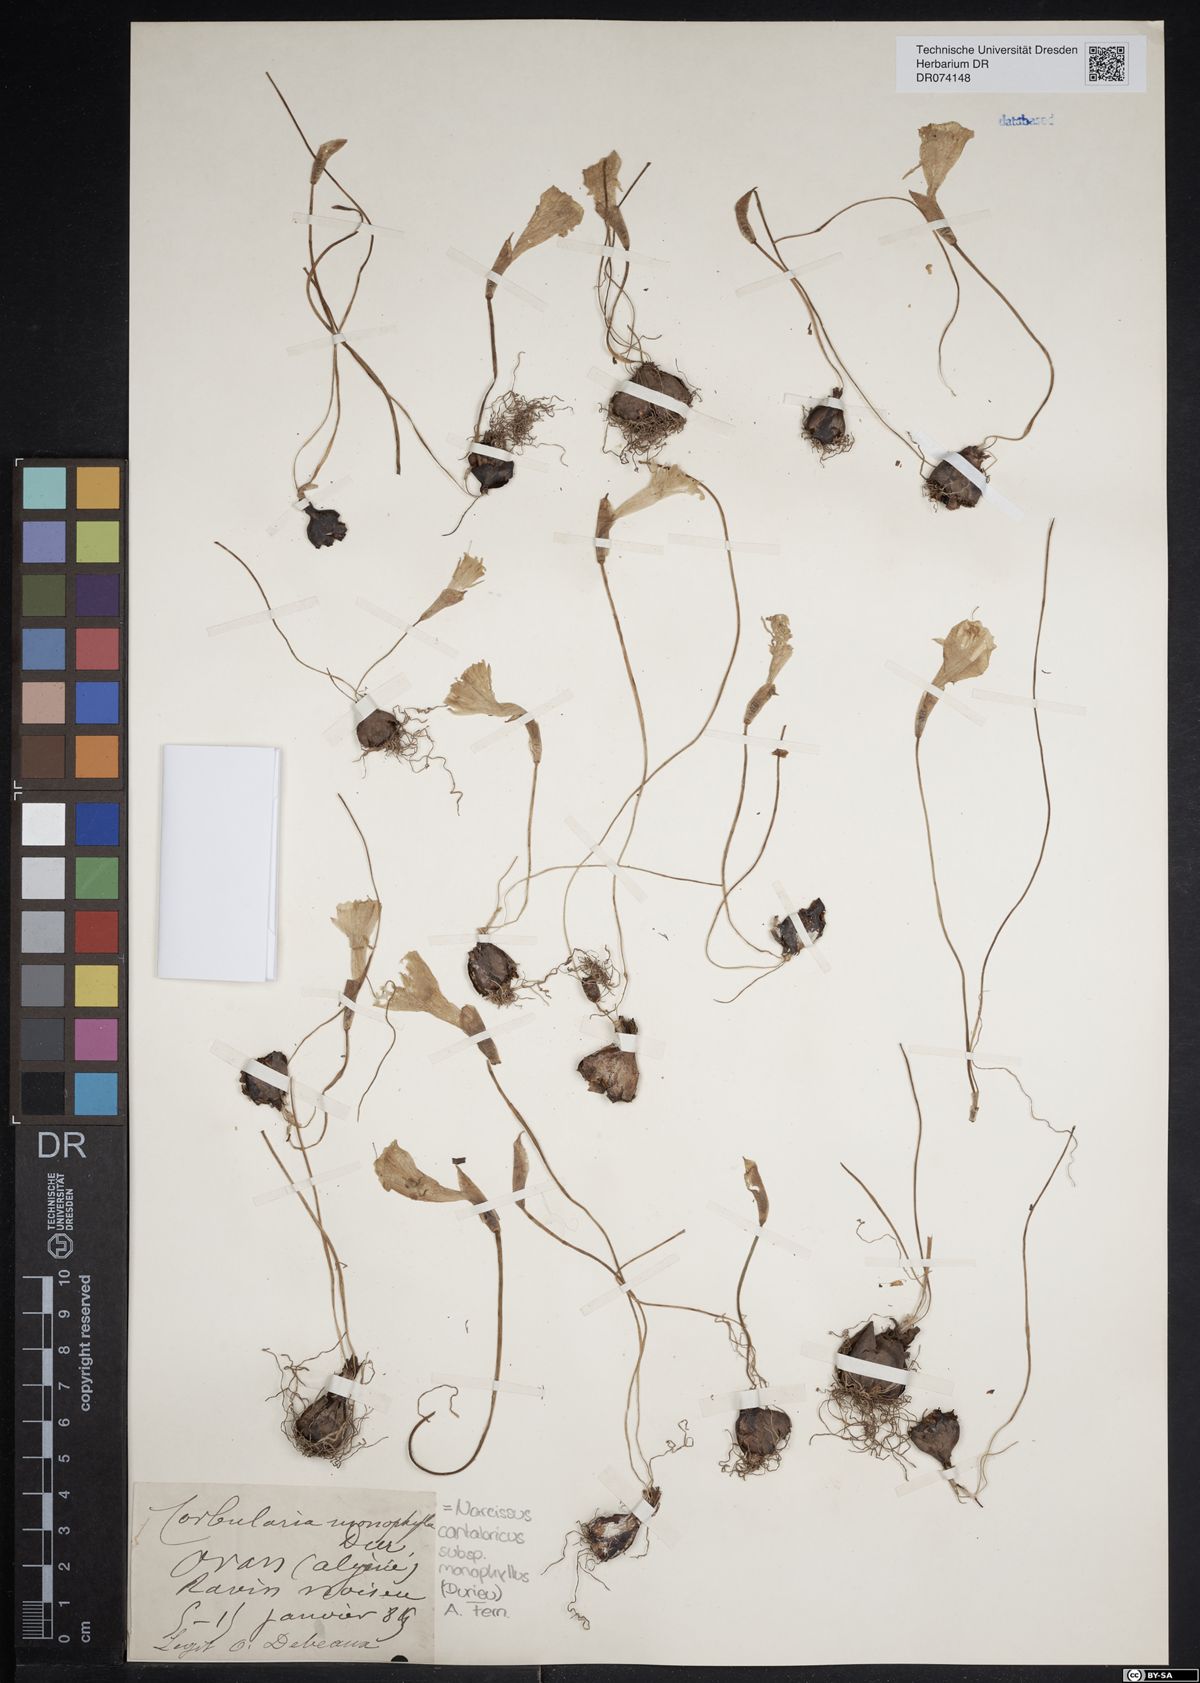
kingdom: Plantae
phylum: Tracheophyta
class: Liliopsida
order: Asparagales
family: Amaryllidaceae
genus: Narcissus
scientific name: Narcissus cantabricus
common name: White hoop petticoat daffodil
